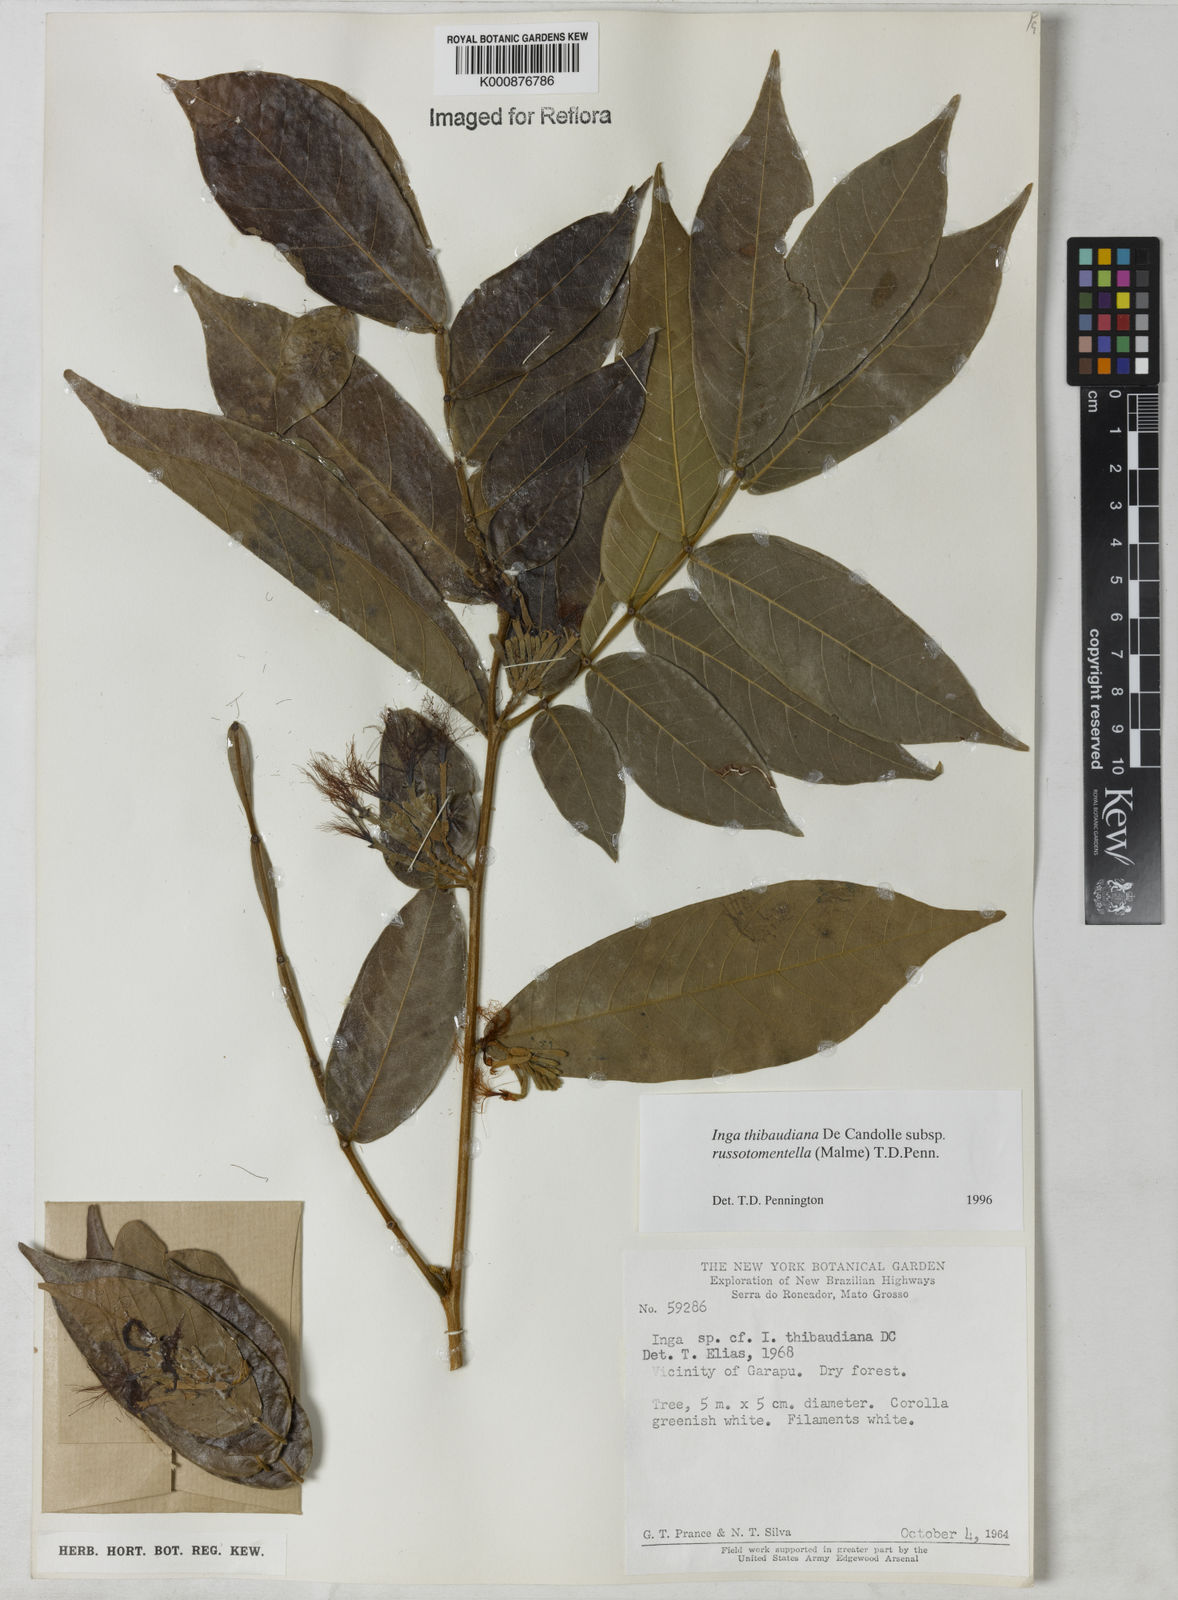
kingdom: Plantae
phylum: Tracheophyta
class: Magnoliopsida
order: Fabales
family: Fabaceae
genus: Inga
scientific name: Inga thibaudiana
